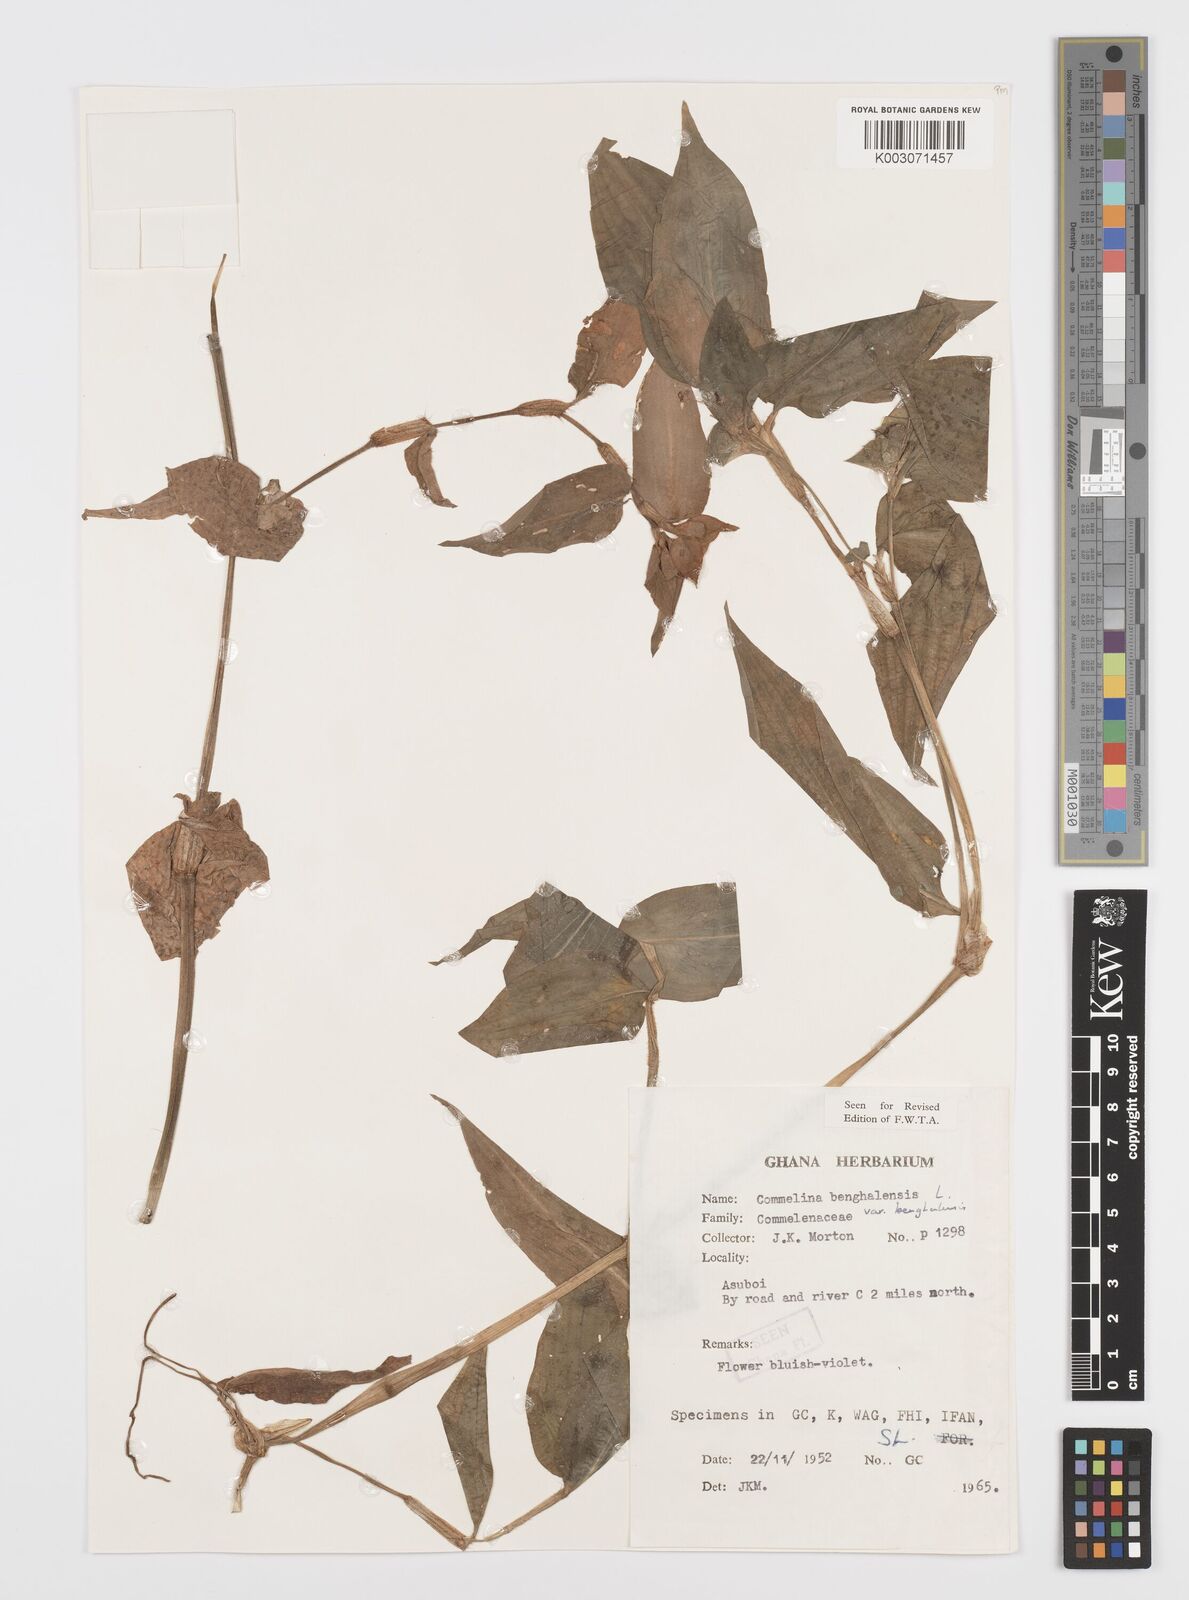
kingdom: Plantae
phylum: Tracheophyta
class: Liliopsida
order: Commelinales
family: Commelinaceae
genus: Commelina
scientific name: Commelina benghalensis
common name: Jio
